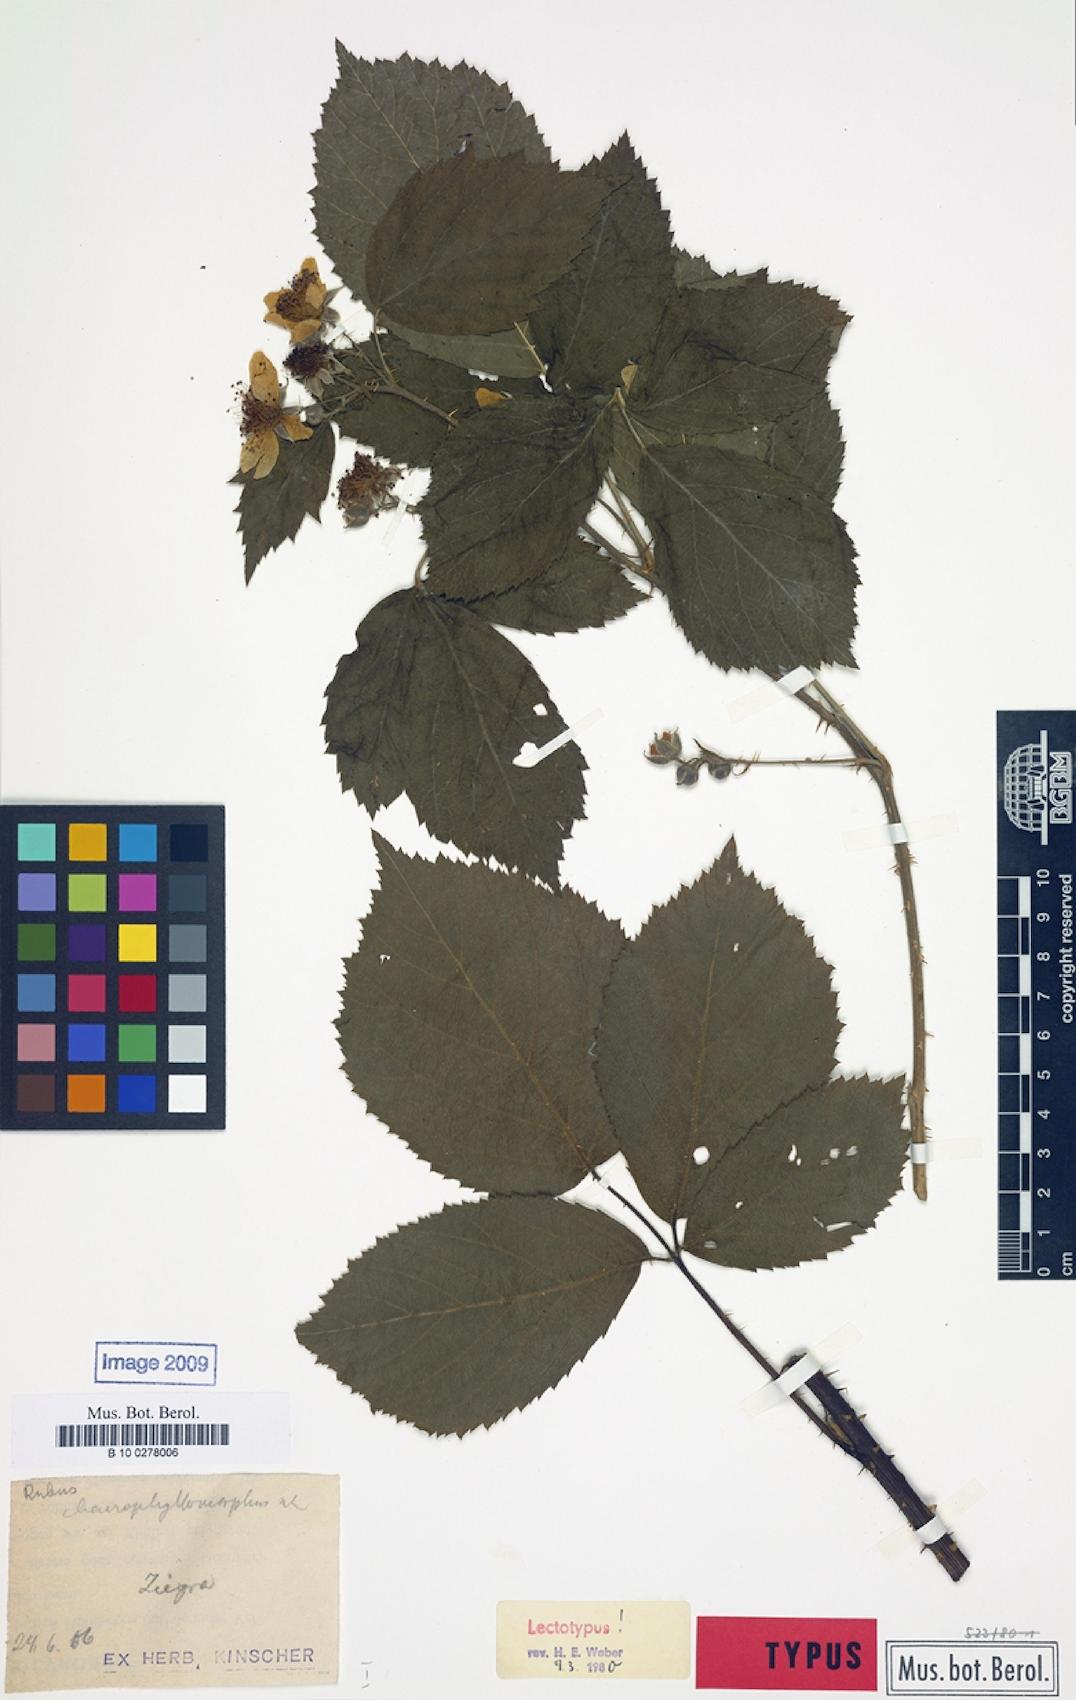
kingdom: Plantae
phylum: Tracheophyta
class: Magnoliopsida
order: Rosales
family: Rosaceae
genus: Rubus
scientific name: Rubus chaerophyllomorphus
